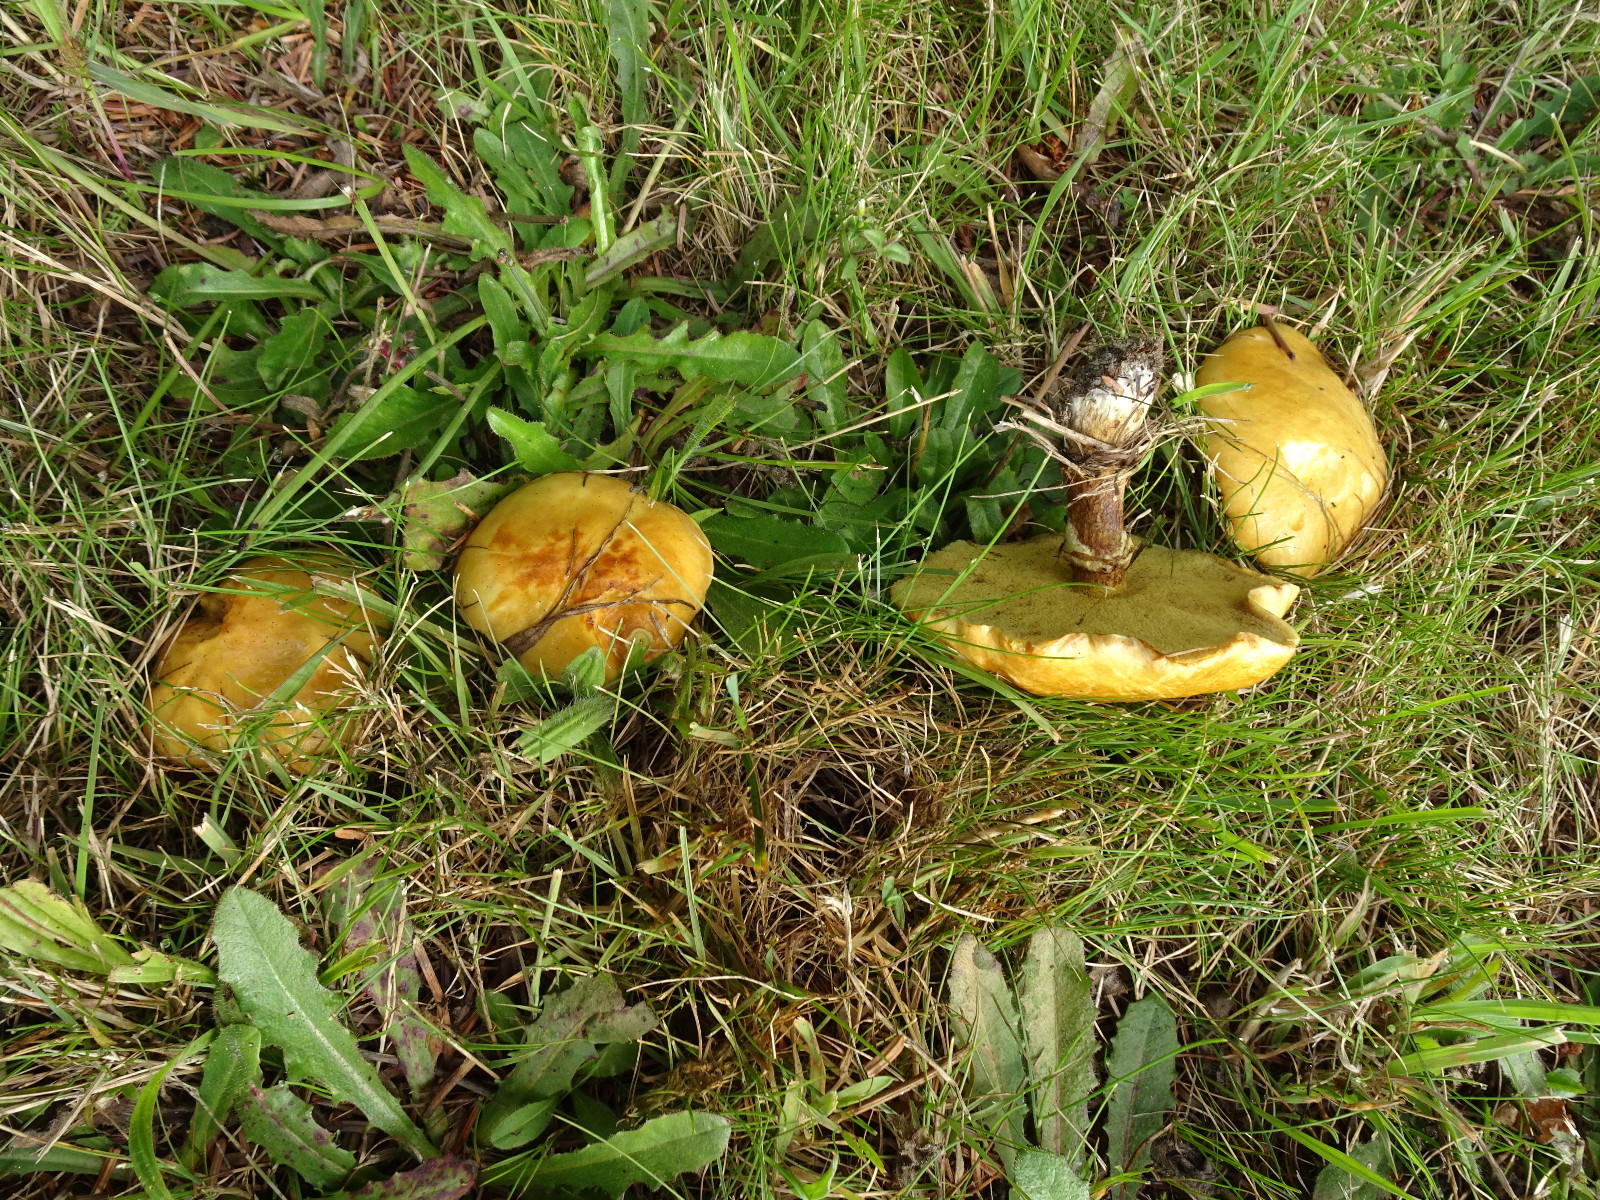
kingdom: Fungi
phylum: Basidiomycota
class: Agaricomycetes
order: Boletales
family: Suillaceae
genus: Suillus
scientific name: Suillus grevillei
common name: lærke-slimrørhat
